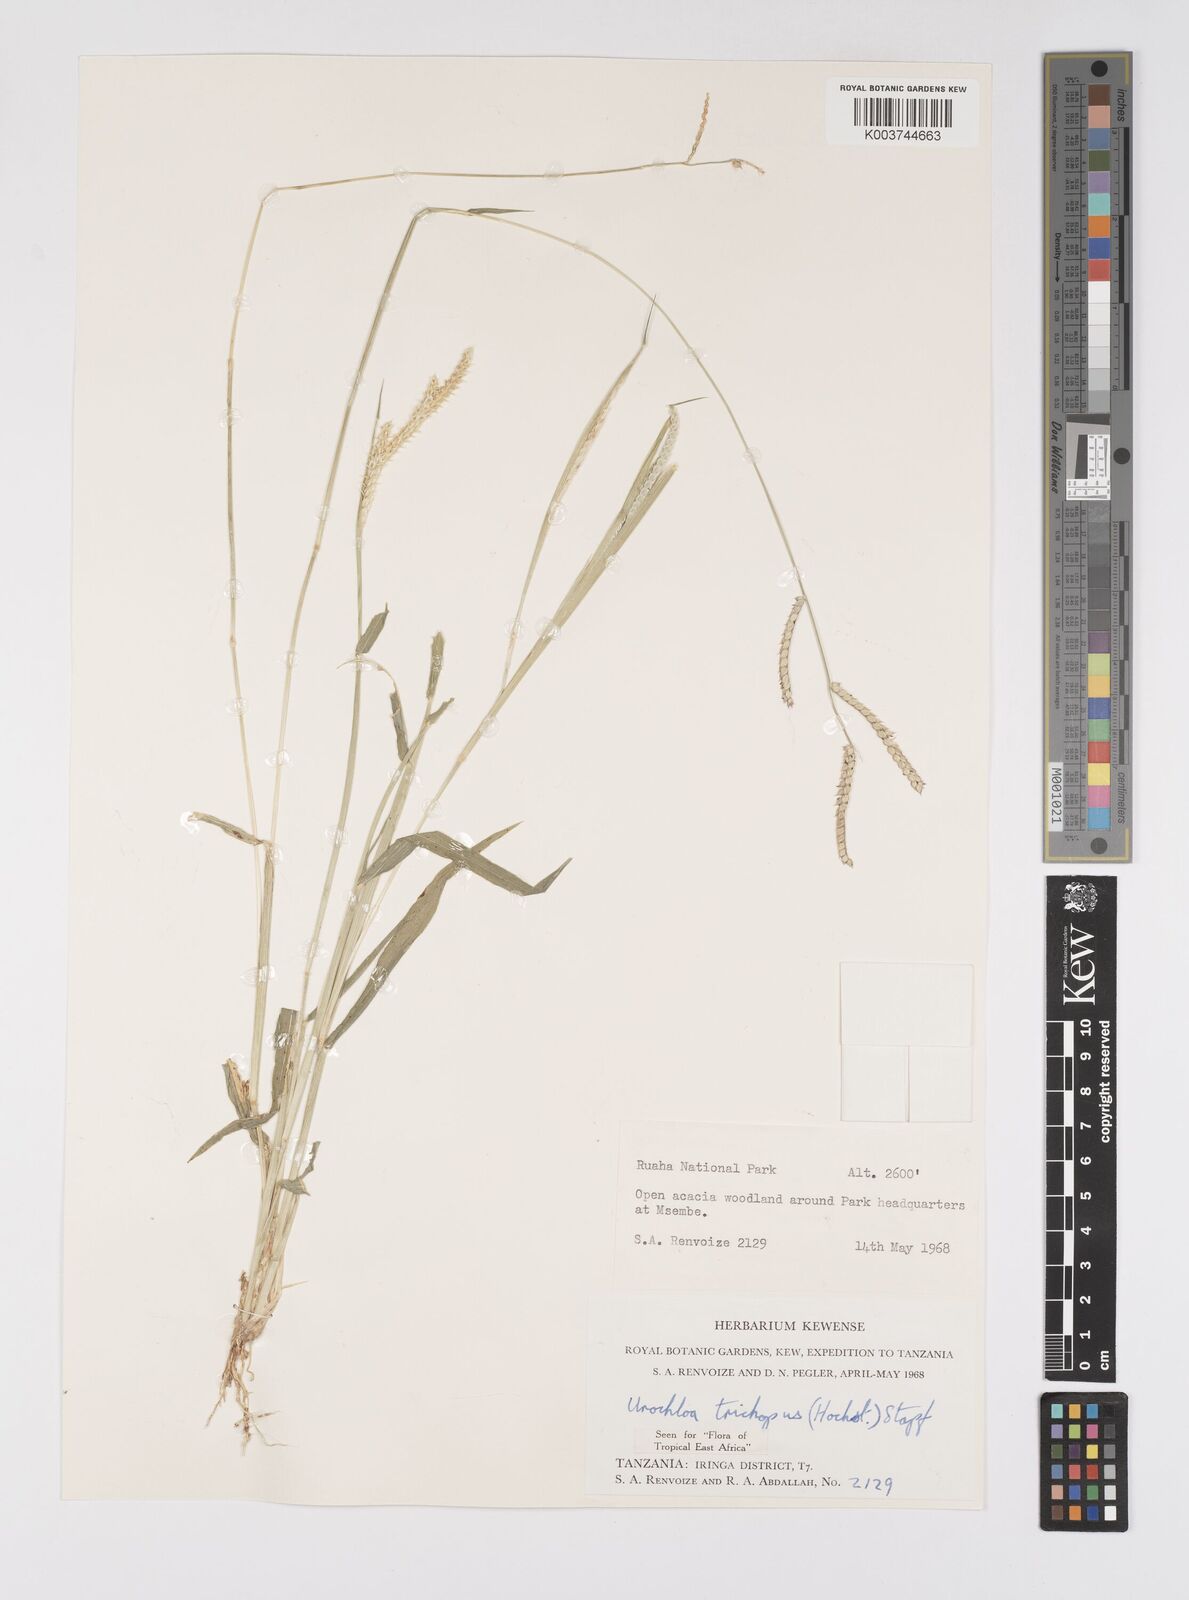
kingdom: Plantae
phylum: Tracheophyta
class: Liliopsida
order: Poales
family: Poaceae
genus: Urochloa
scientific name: Urochloa trichopus
